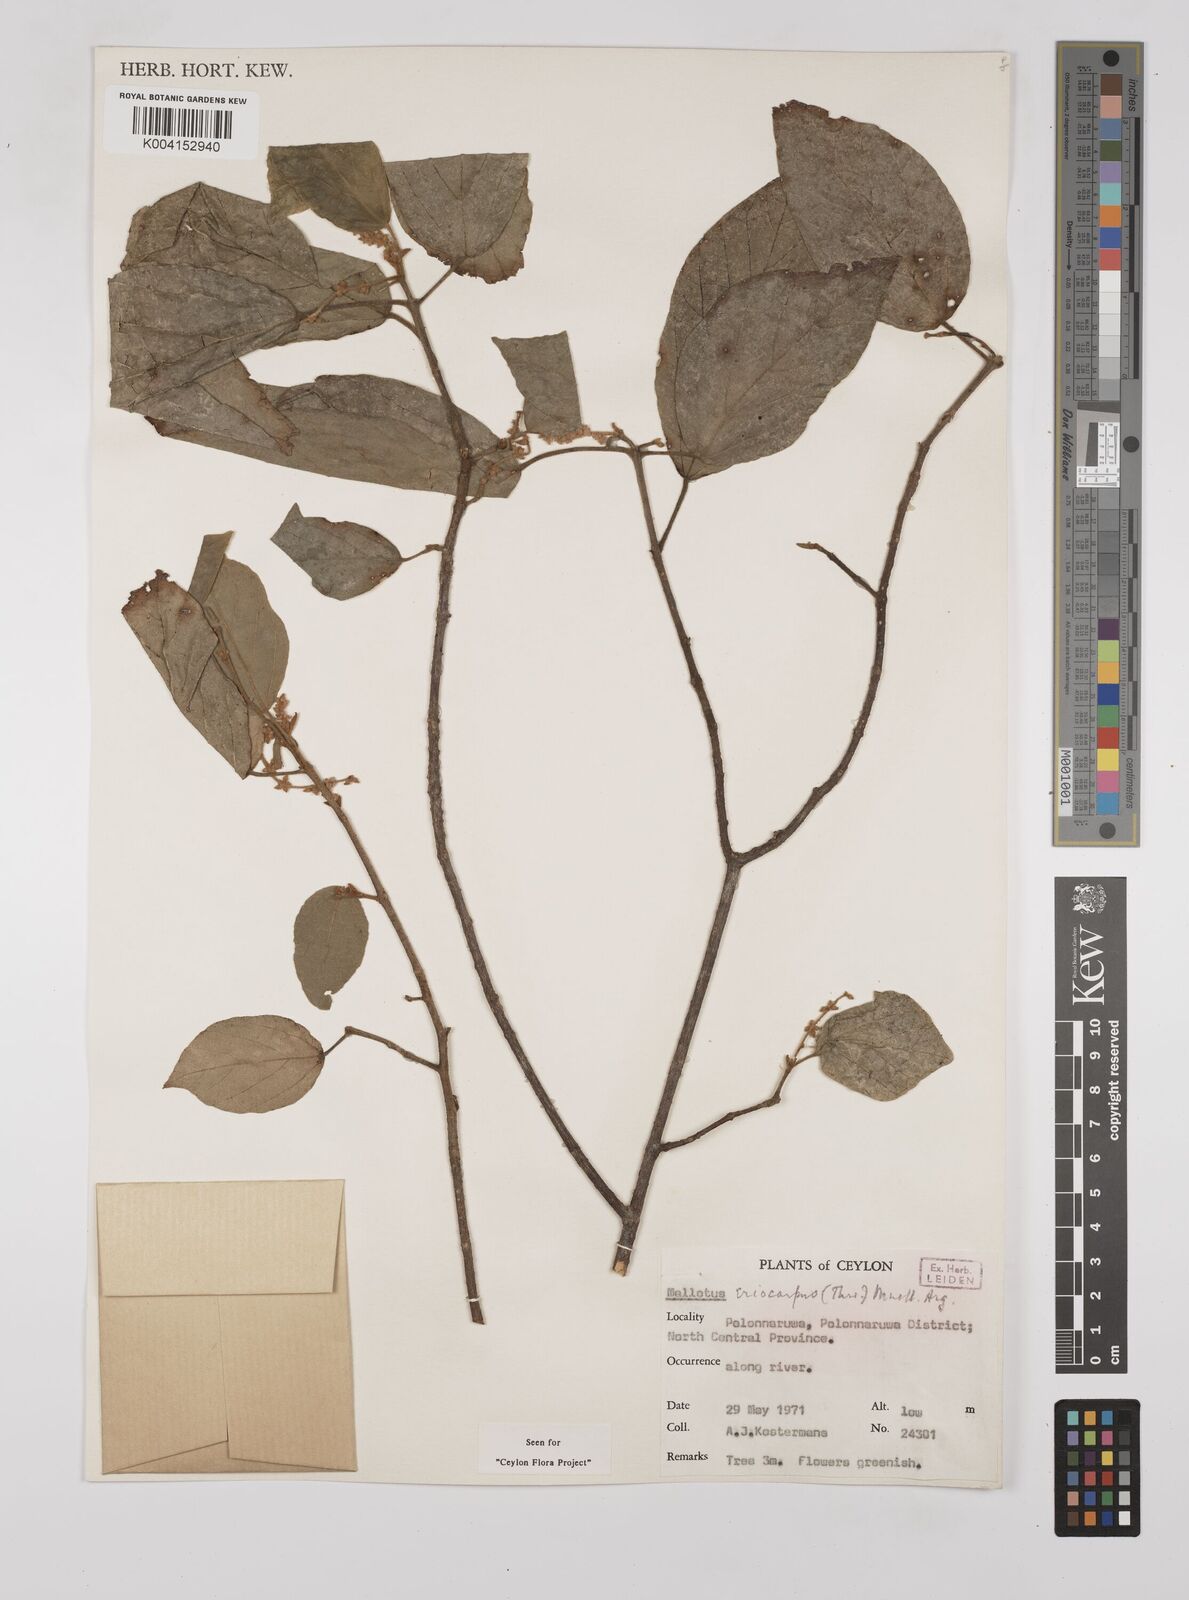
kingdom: Plantae
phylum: Tracheophyta
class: Magnoliopsida
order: Malpighiales
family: Euphorbiaceae
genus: Mallotus
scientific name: Mallotus eriocarpus
